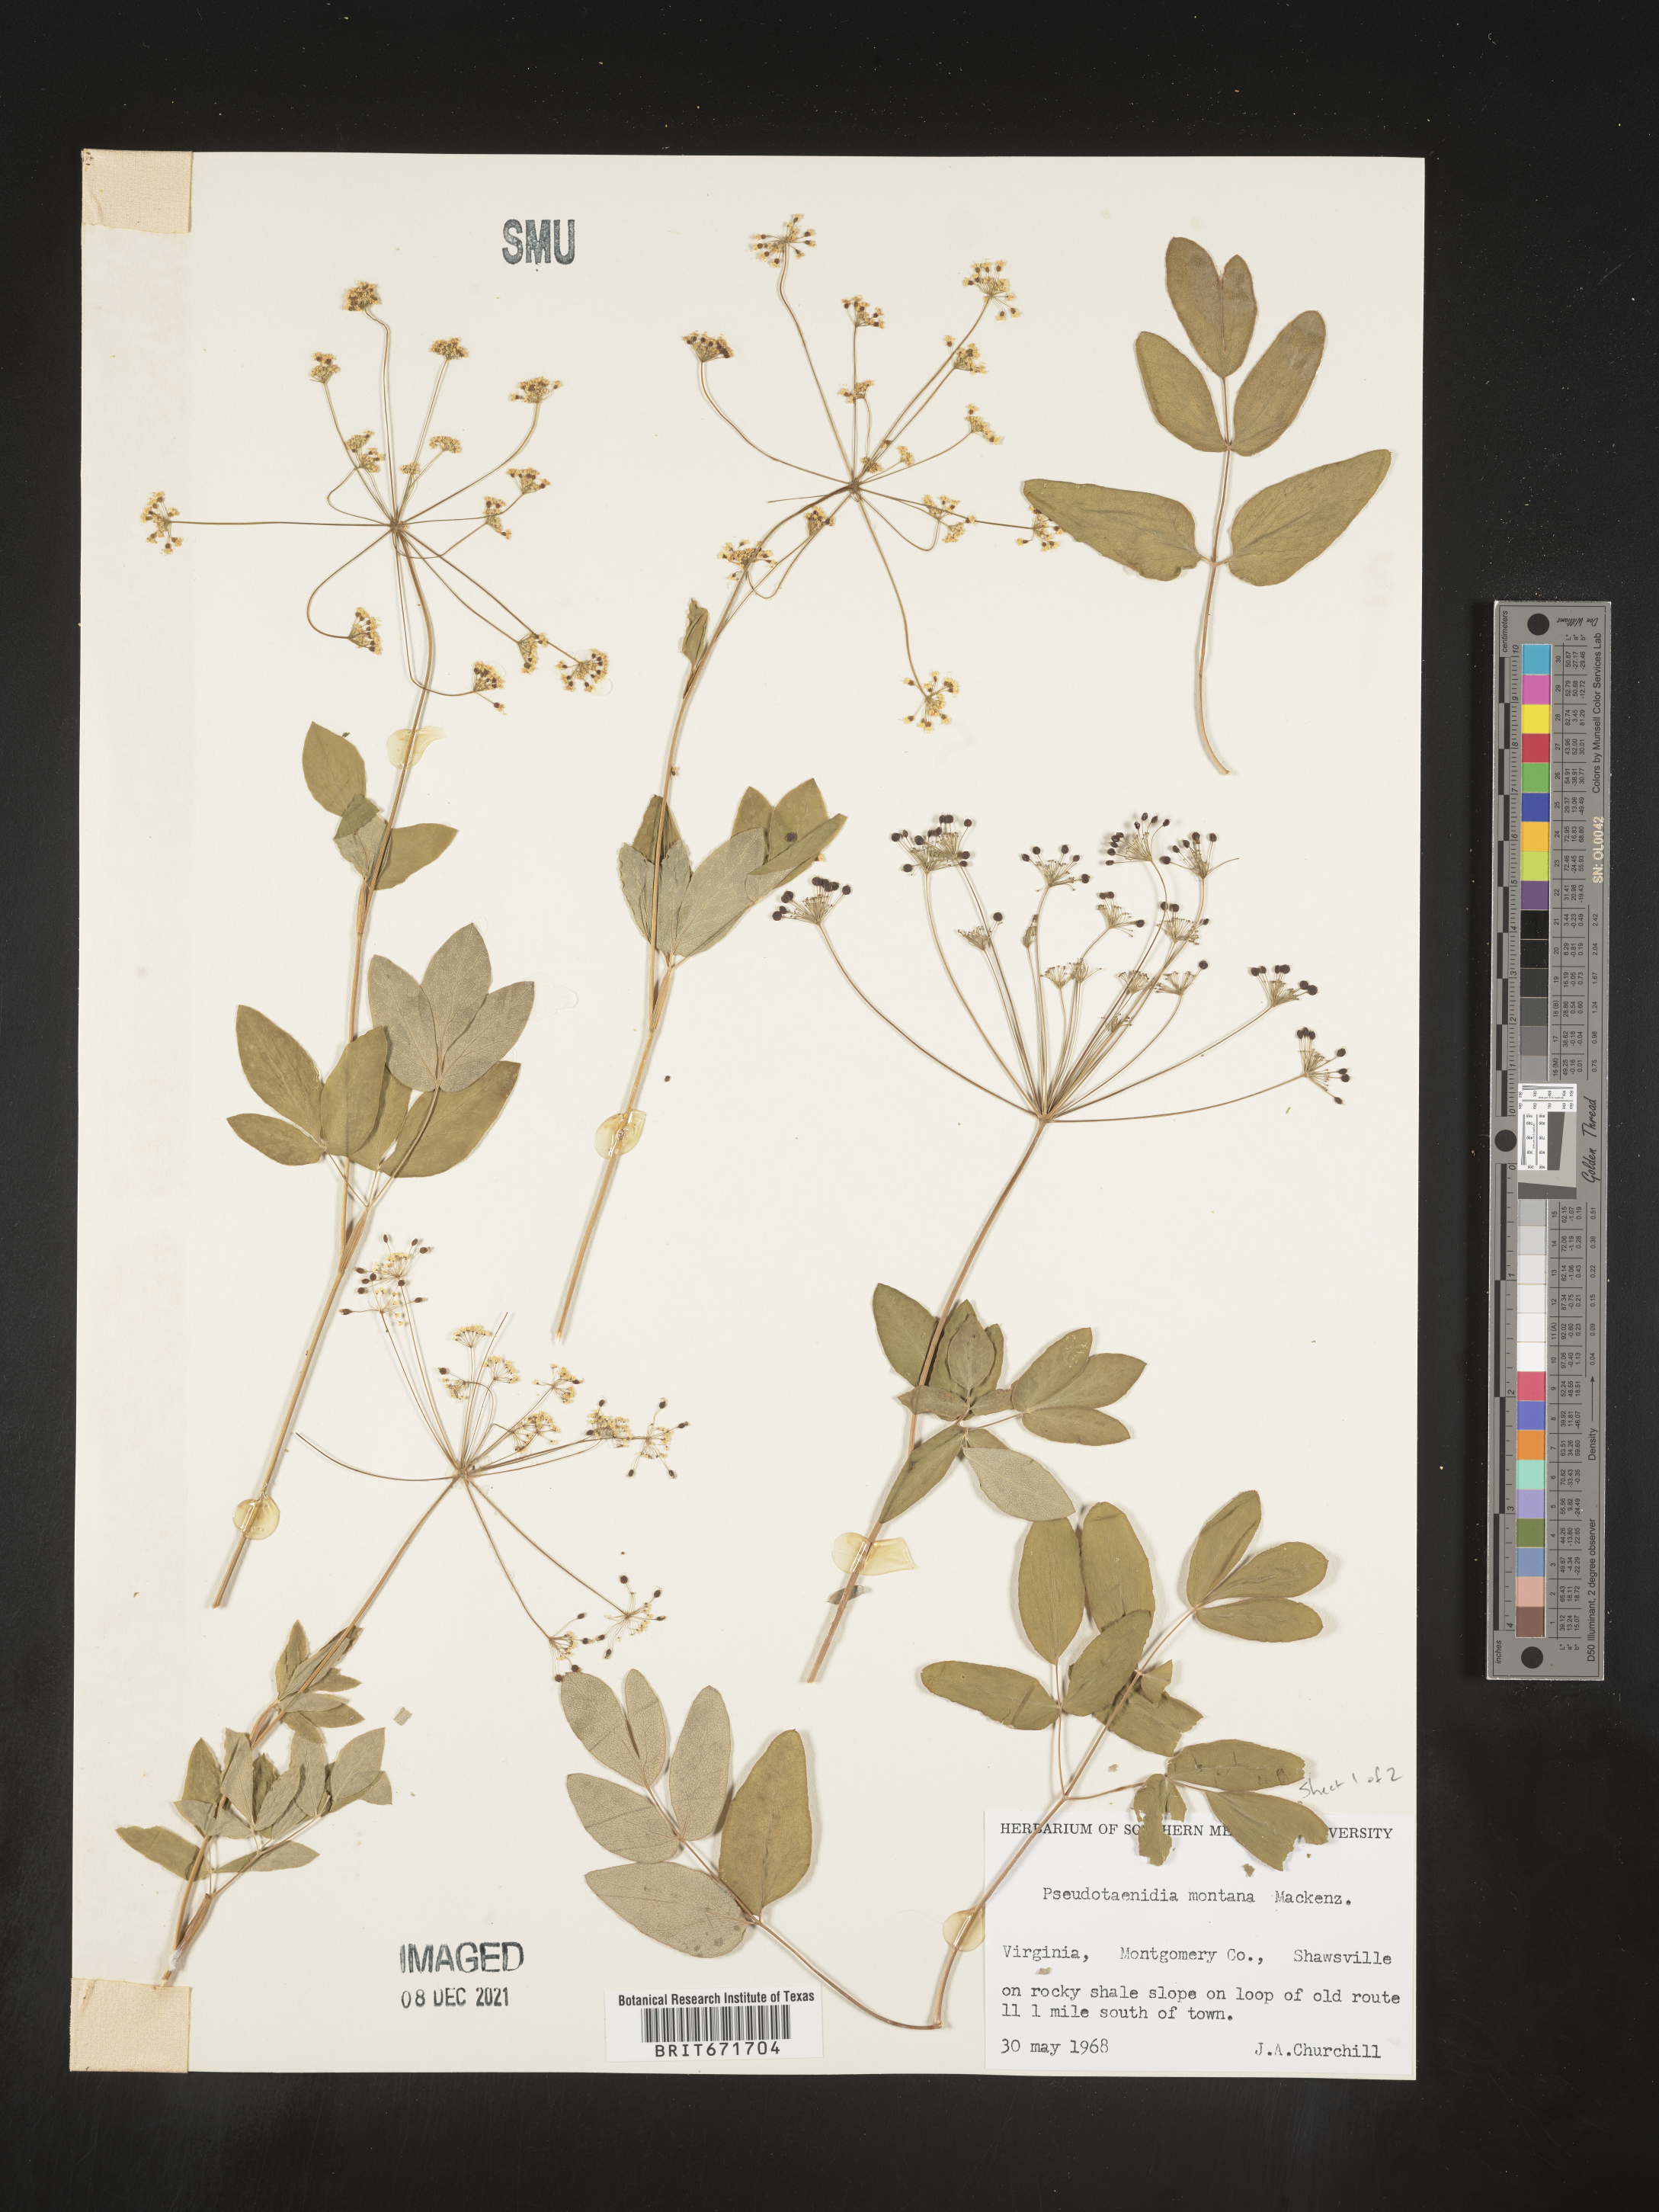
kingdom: Plantae
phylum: Tracheophyta
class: Magnoliopsida
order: Apiales
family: Apiaceae
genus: Taenidia
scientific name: Taenidia
